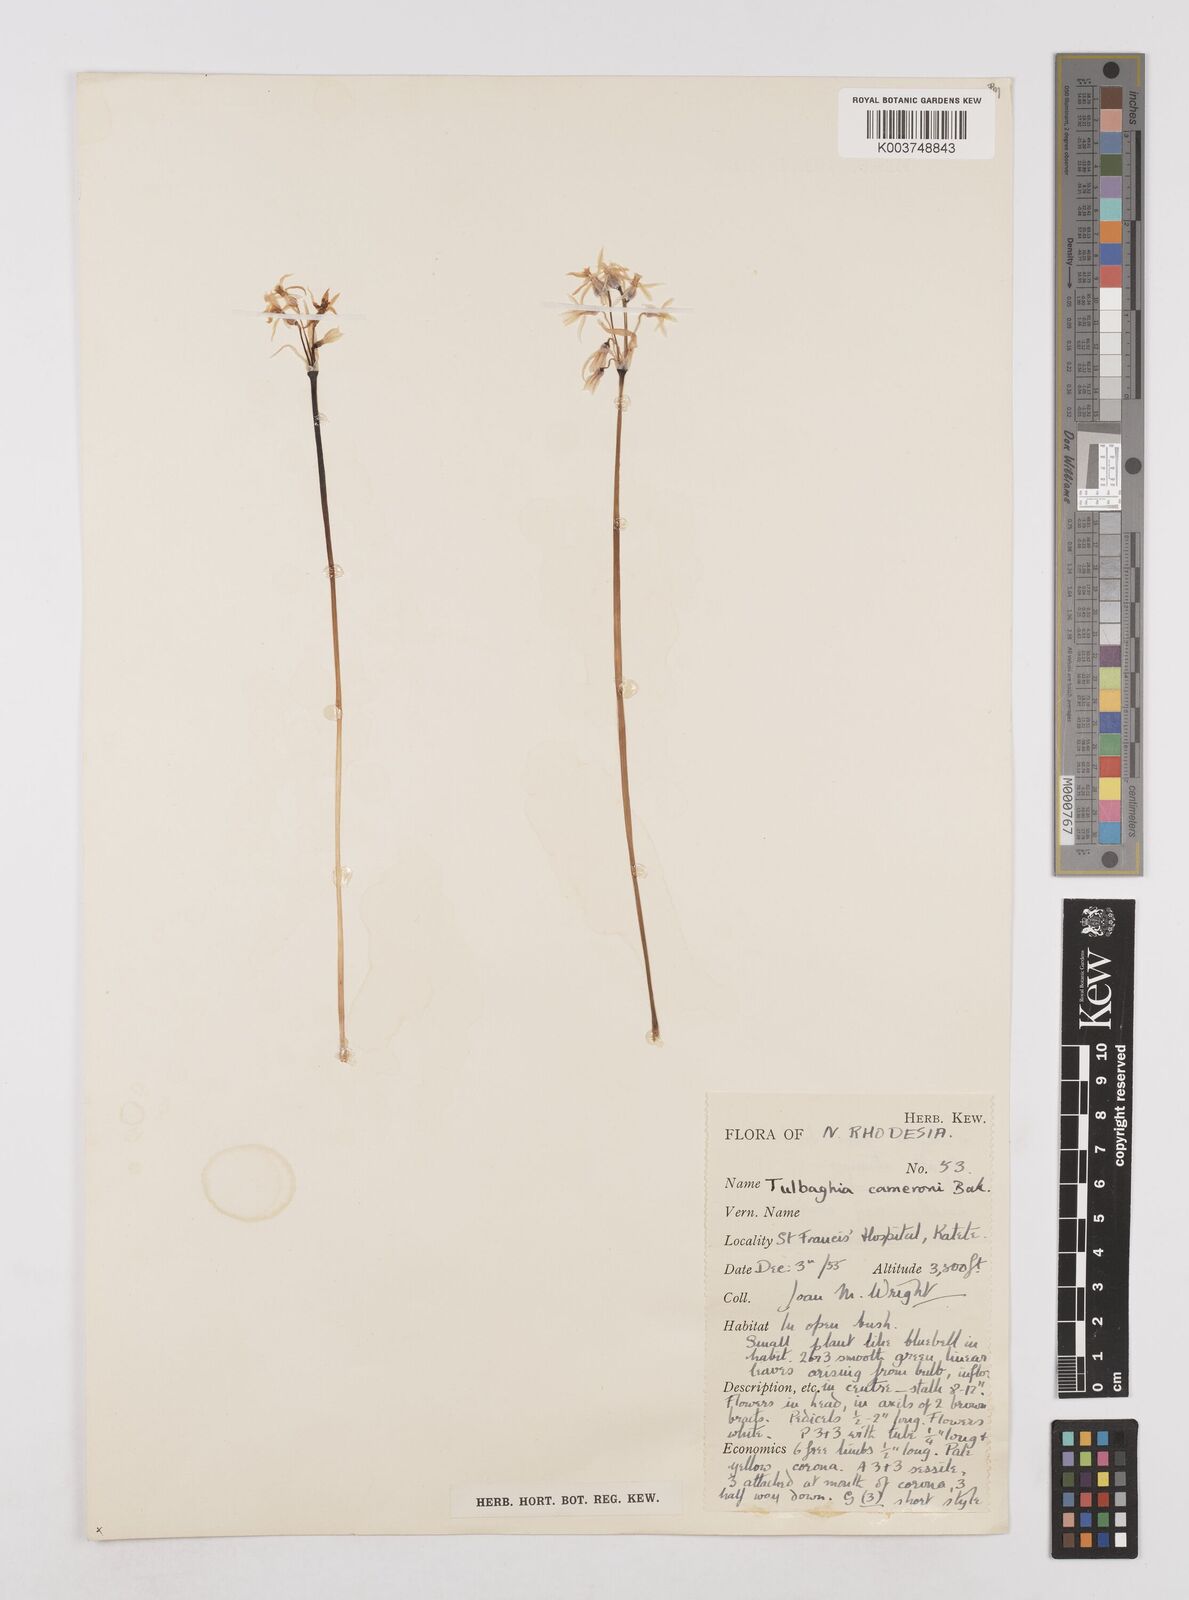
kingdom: Plantae
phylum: Tracheophyta
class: Liliopsida
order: Asparagales
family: Amaryllidaceae
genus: Tulbaghia
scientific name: Tulbaghia cameronii
